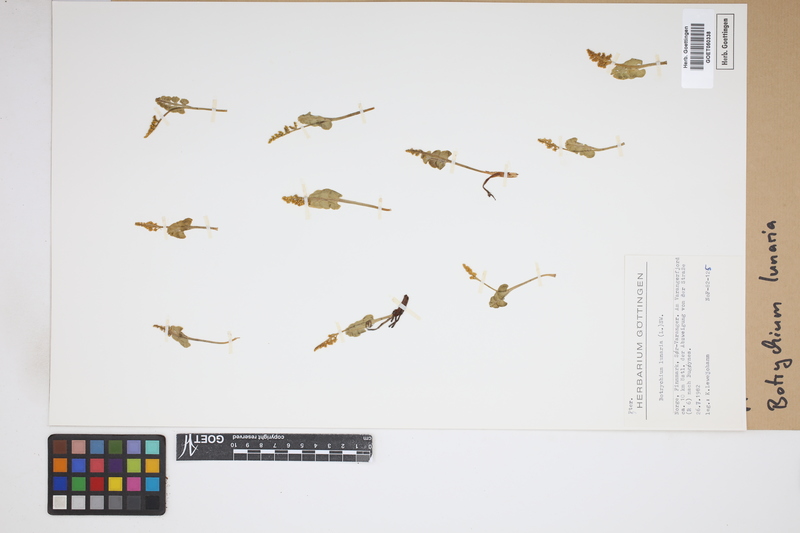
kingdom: Plantae
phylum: Tracheophyta
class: Polypodiopsida
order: Ophioglossales
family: Ophioglossaceae
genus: Botrychium
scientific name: Botrychium lunaria
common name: Moonwort
